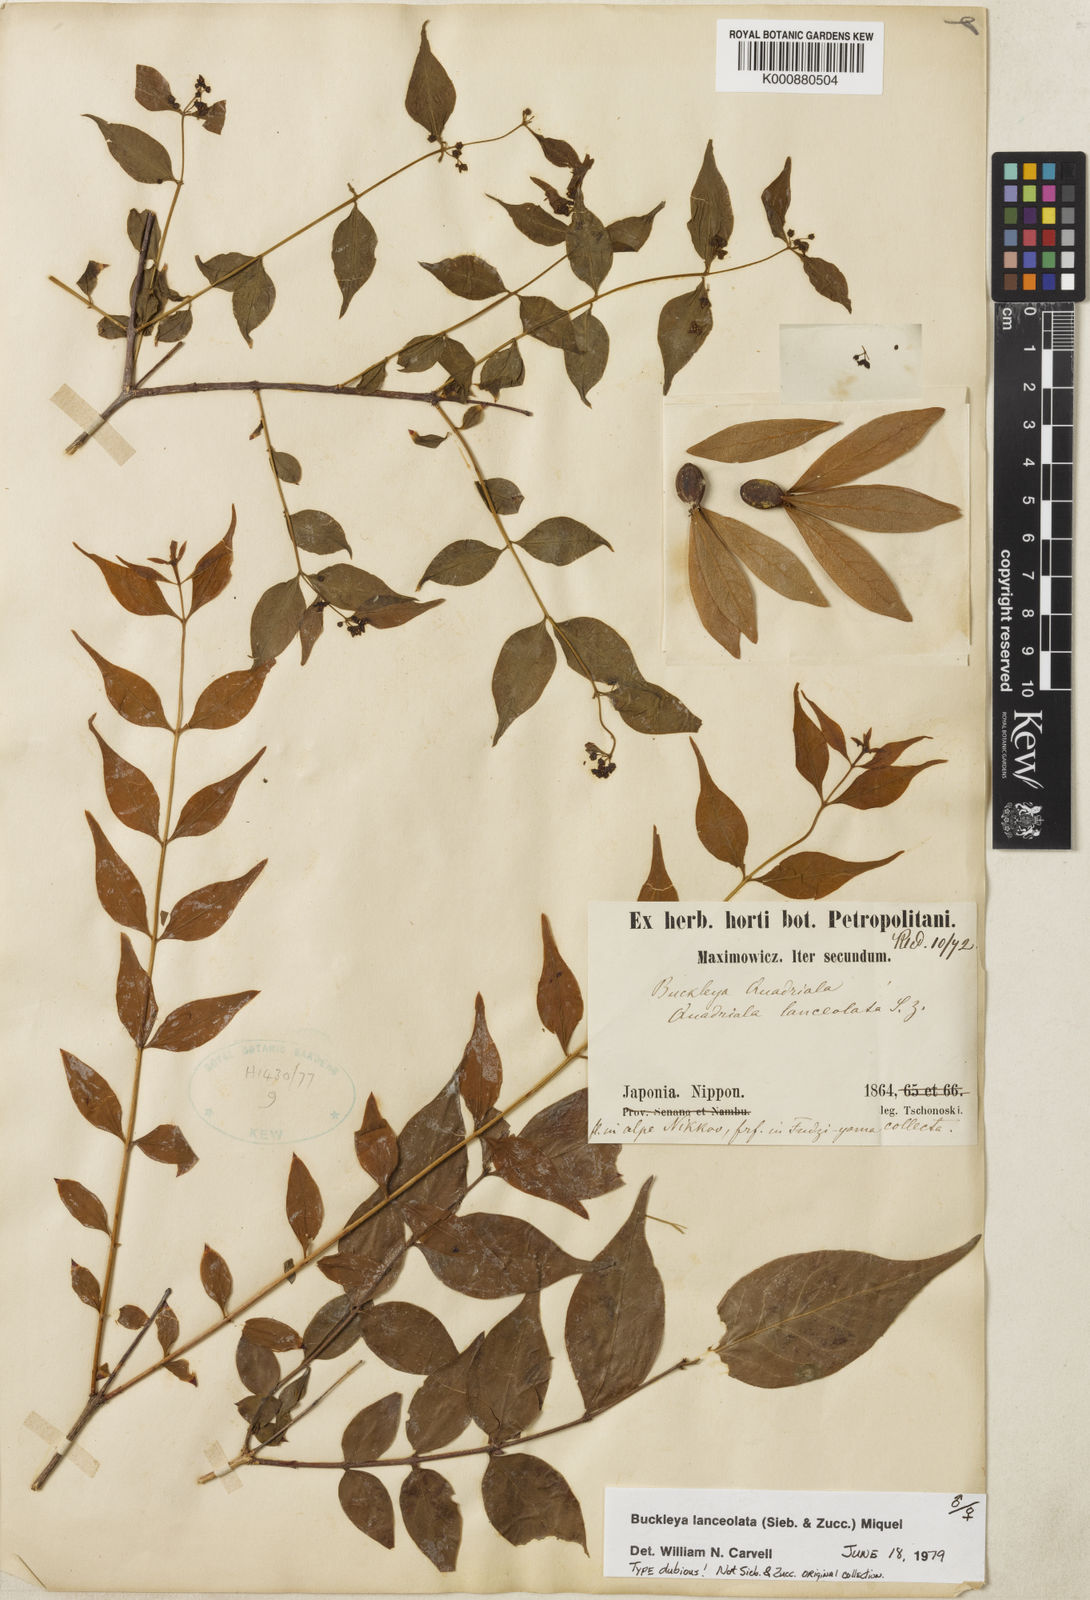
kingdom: Plantae
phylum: Tracheophyta
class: Magnoliopsida
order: Santalales
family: Thesiaceae
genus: Buckleya
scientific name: Buckleya lanceolata
